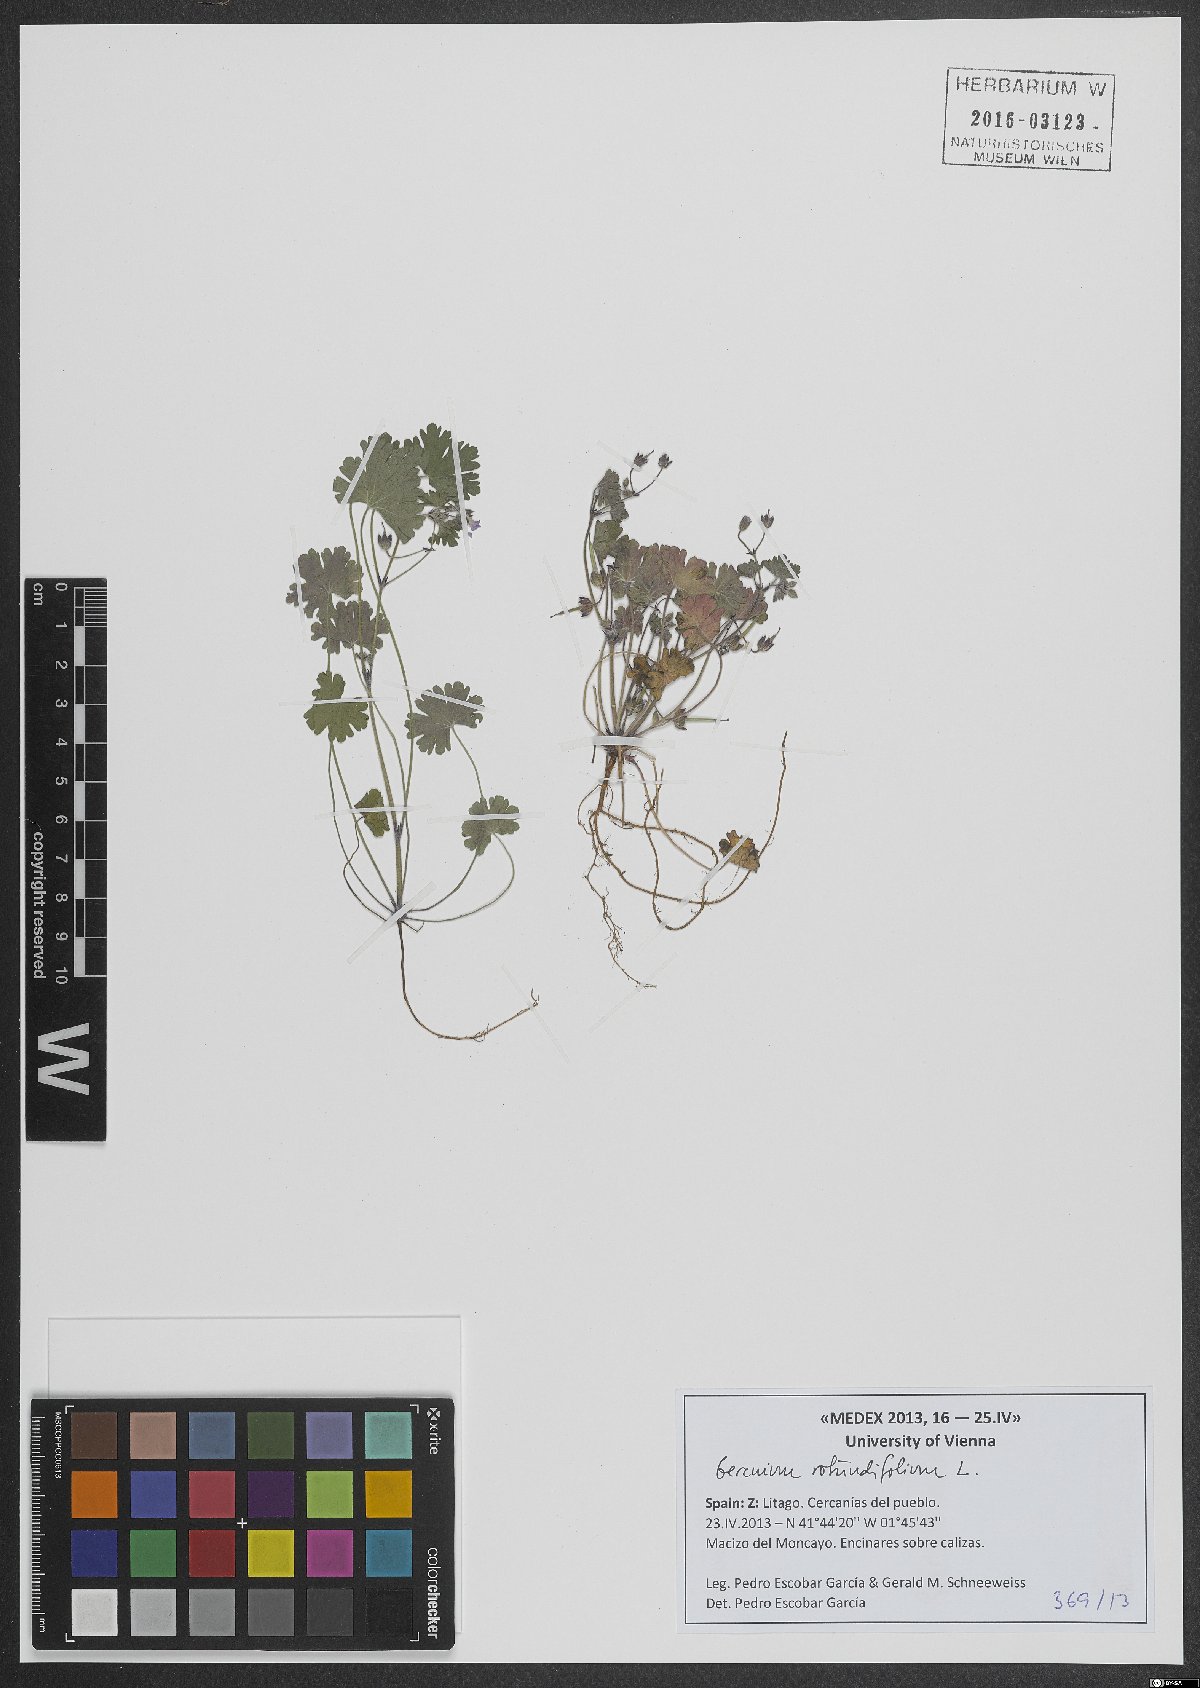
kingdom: Plantae
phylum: Tracheophyta
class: Magnoliopsida
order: Geraniales
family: Geraniaceae
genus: Geranium
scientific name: Geranium rotundifolium
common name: Round-leaved crane's-bill
